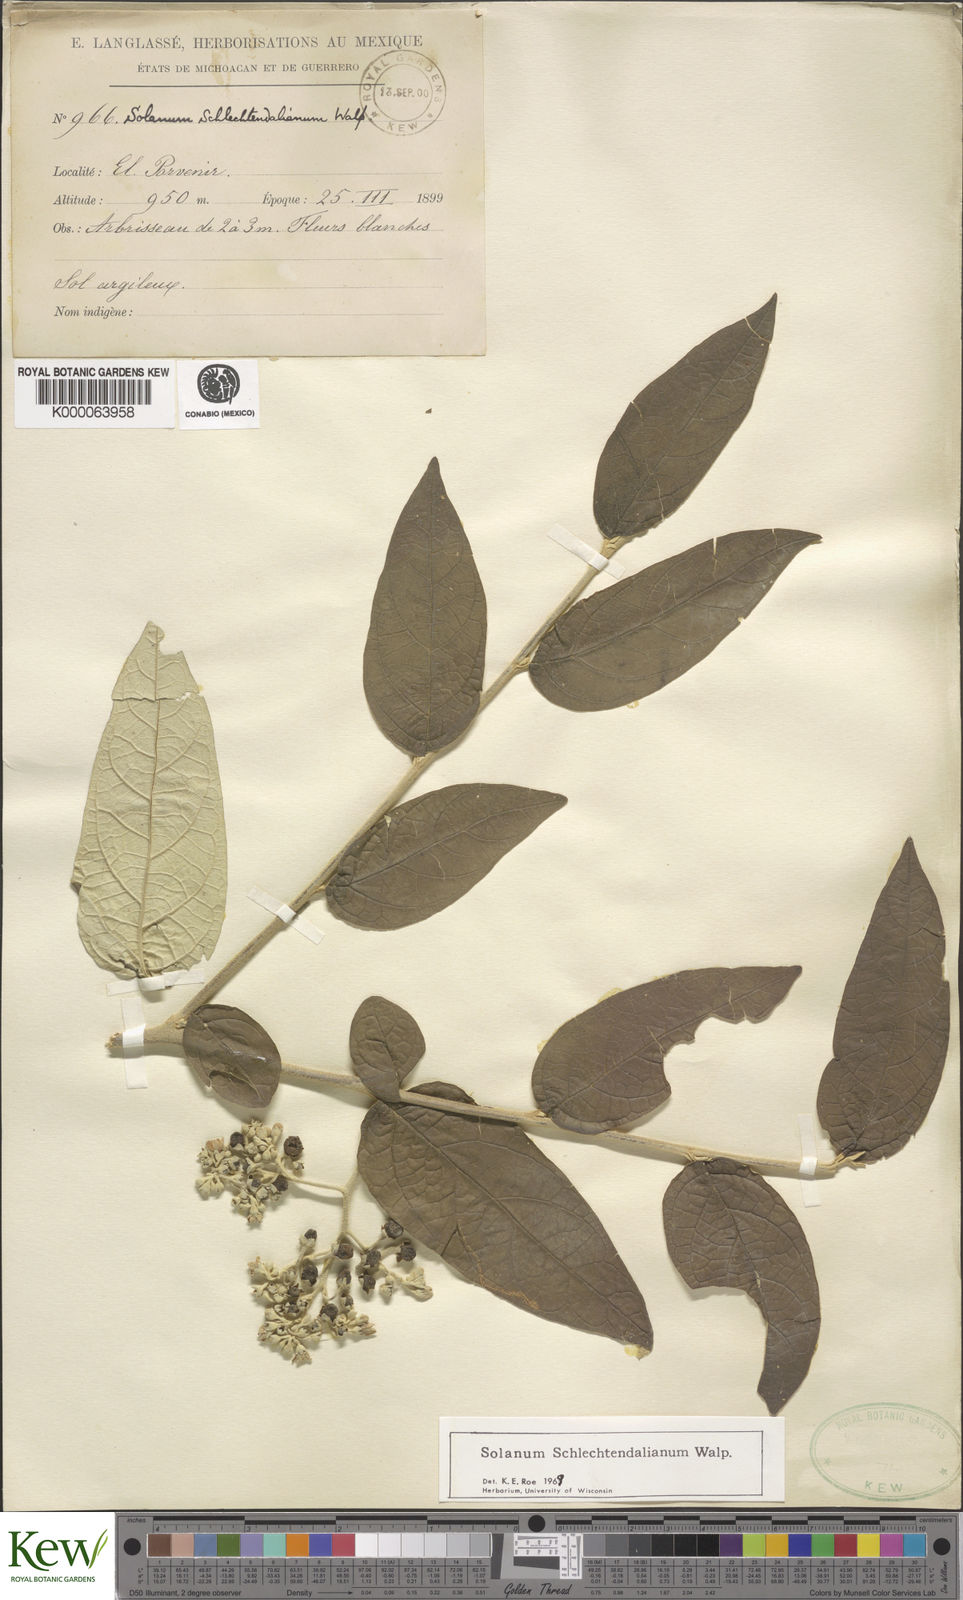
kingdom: Plantae
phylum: Tracheophyta
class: Magnoliopsida
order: Solanales
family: Solanaceae
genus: Solanum
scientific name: Solanum schlechtendalianum
